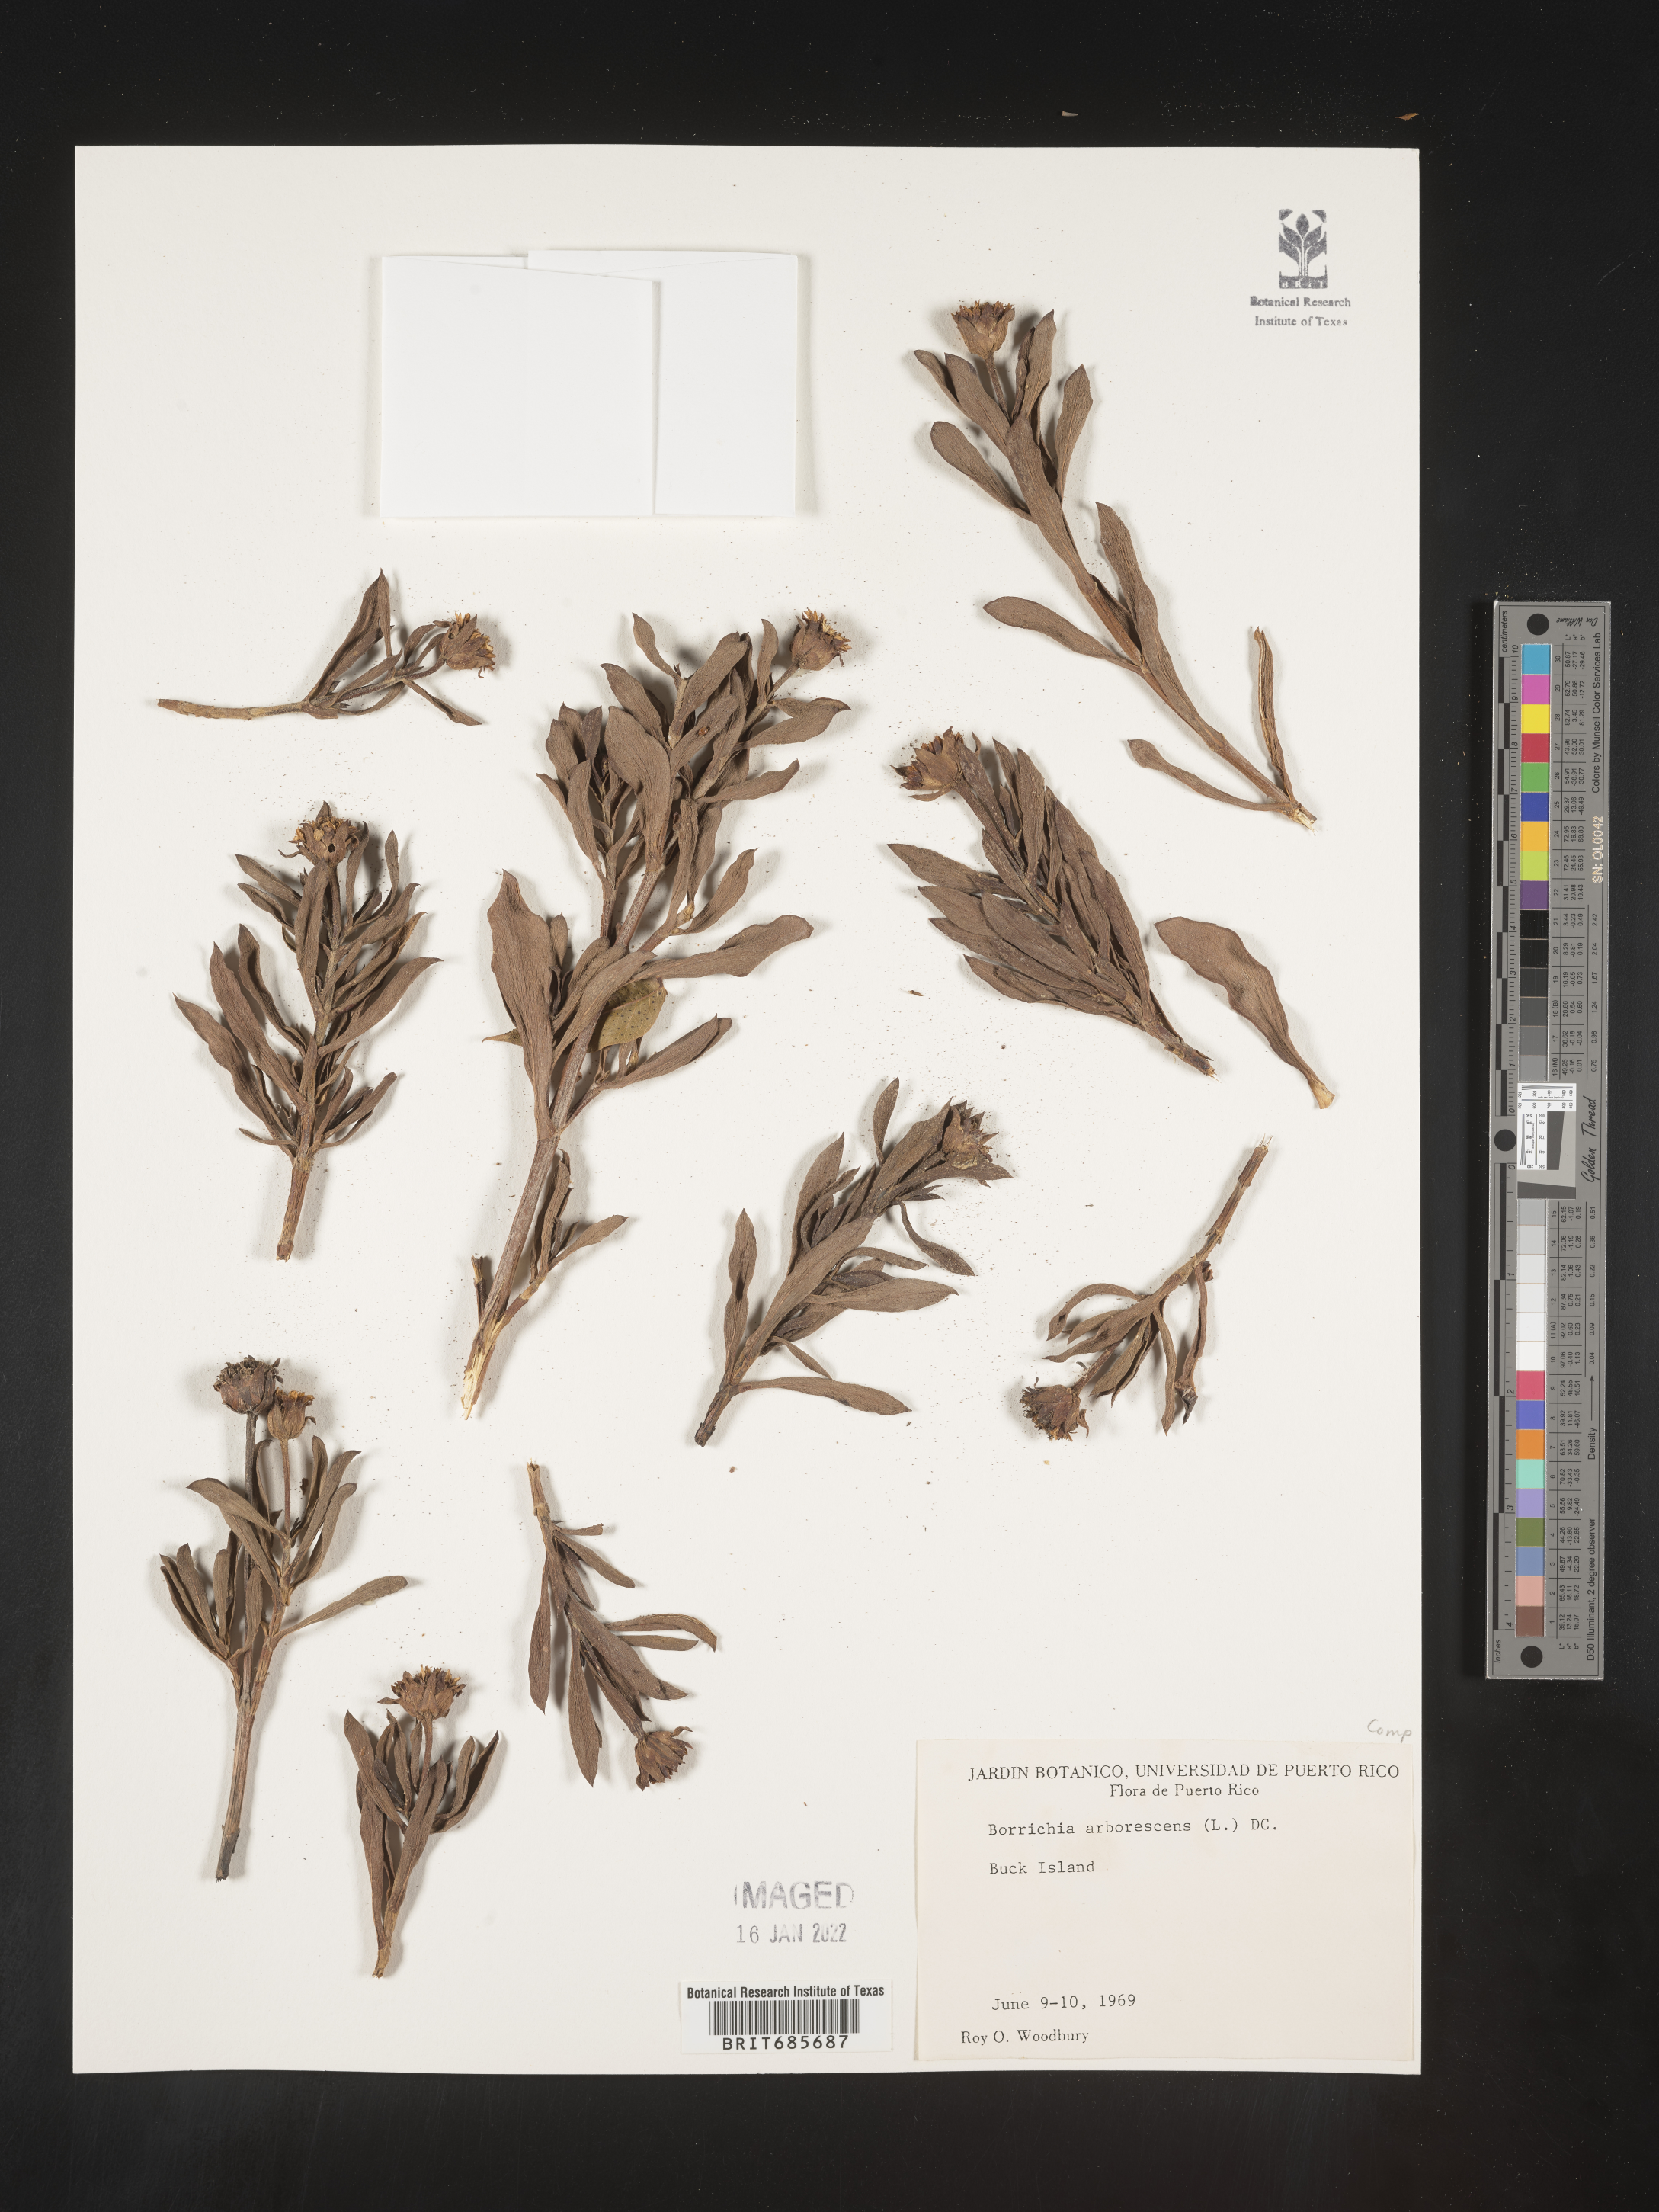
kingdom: Plantae
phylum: Tracheophyta
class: Magnoliopsida
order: Asterales
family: Asteraceae
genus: Borrichia
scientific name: Borrichia
